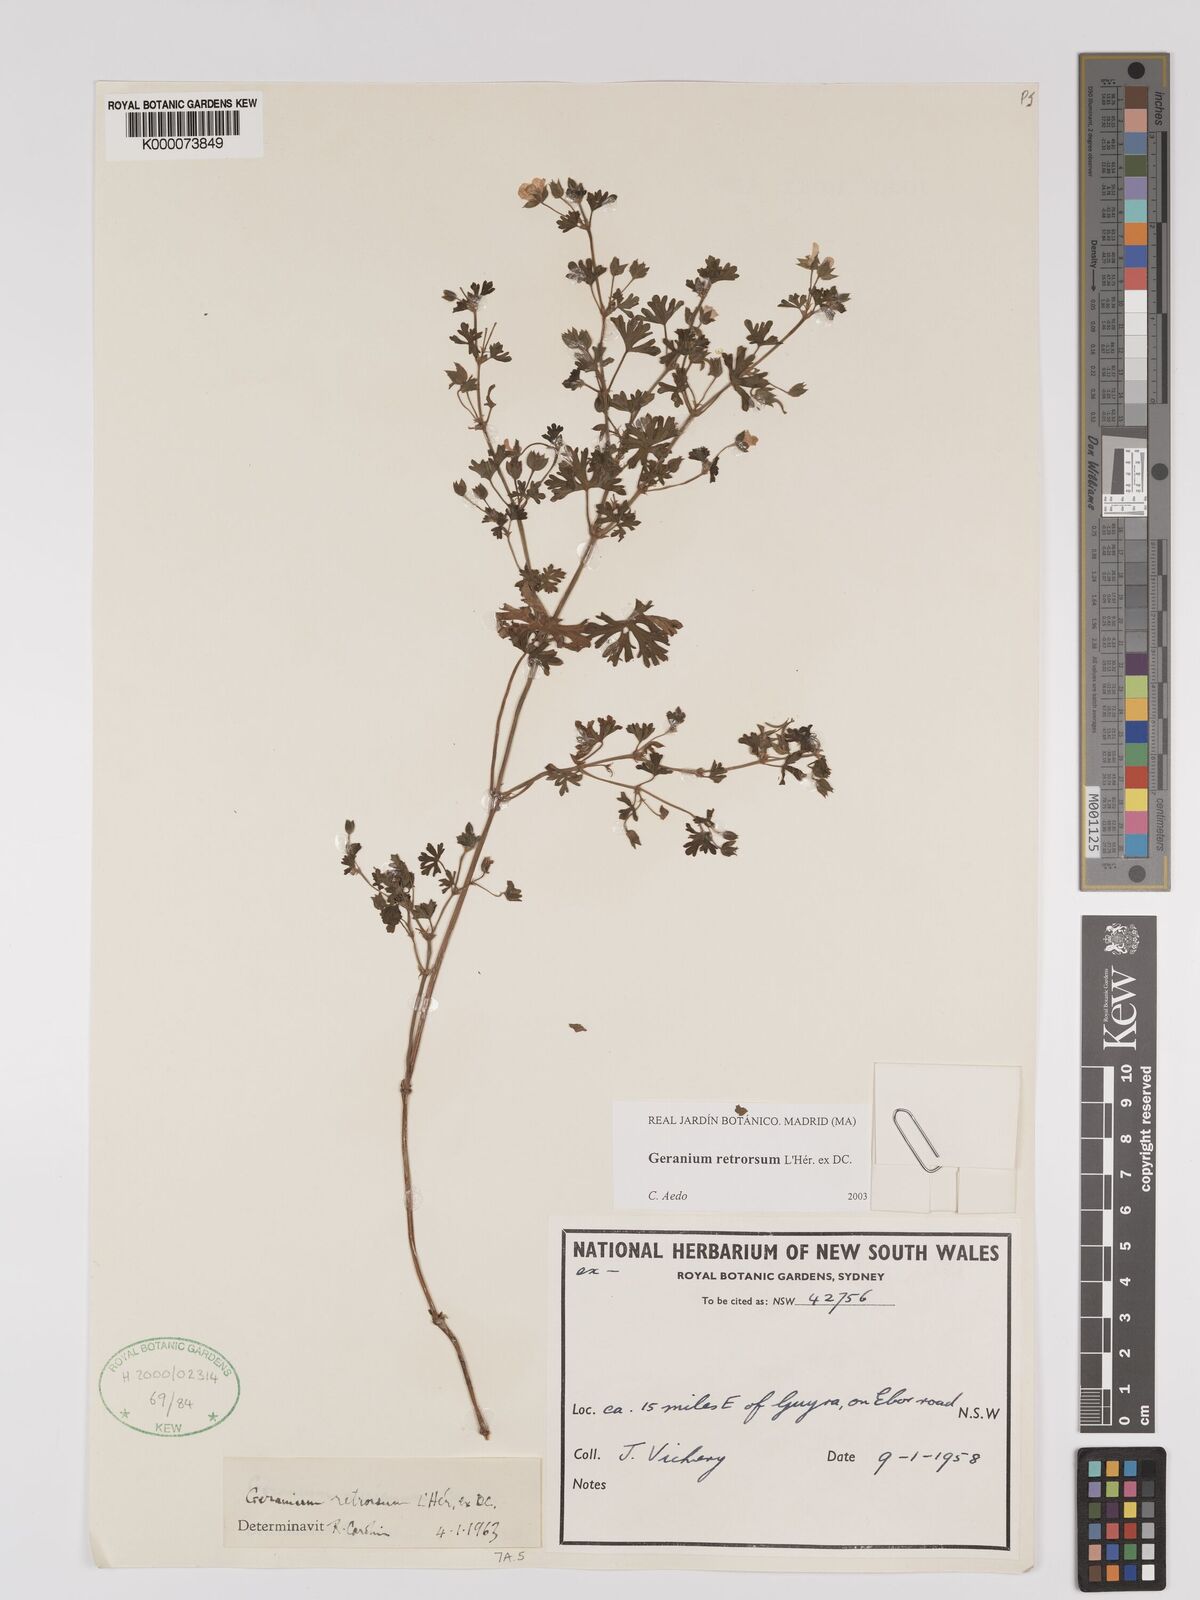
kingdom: Plantae
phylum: Tracheophyta
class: Magnoliopsida
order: Geraniales
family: Geraniaceae
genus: Geranium
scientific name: Geranium retrorsum
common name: New zealand geranium
